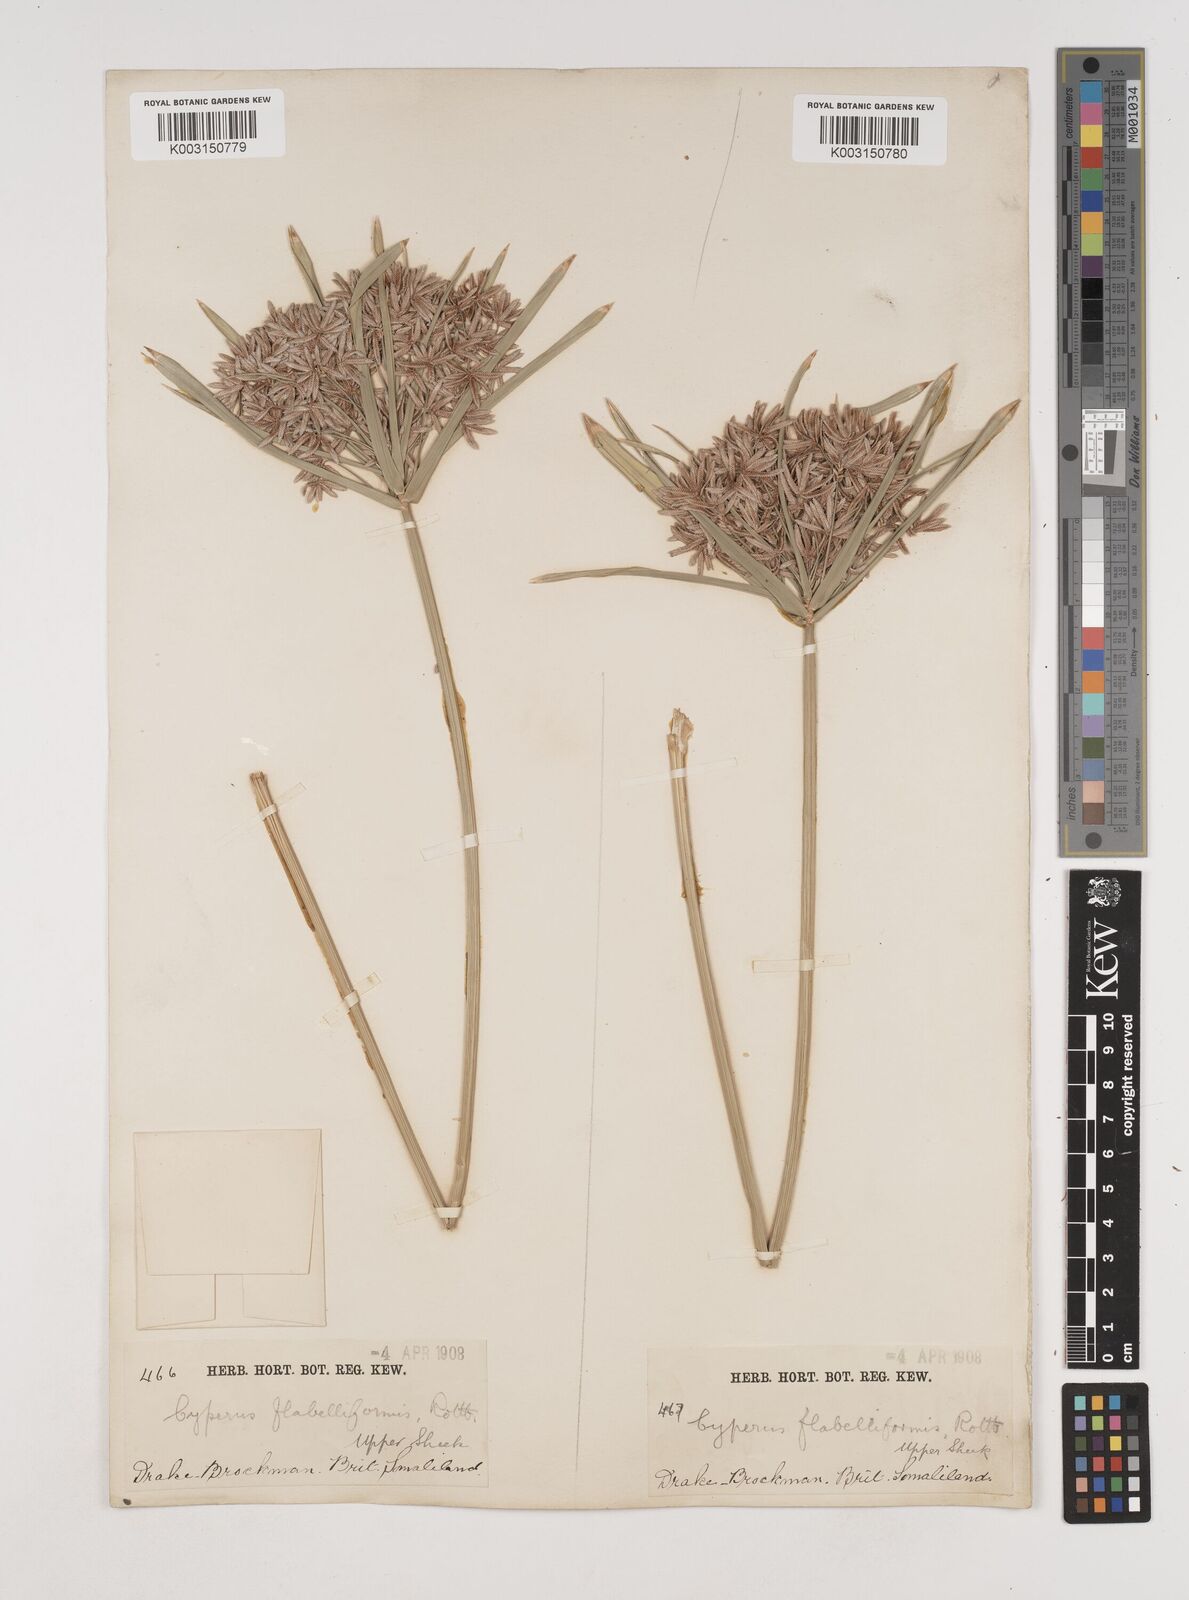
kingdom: Plantae
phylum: Tracheophyta
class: Liliopsida
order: Poales
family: Cyperaceae
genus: Cyperus
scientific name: Cyperus alternifolius
